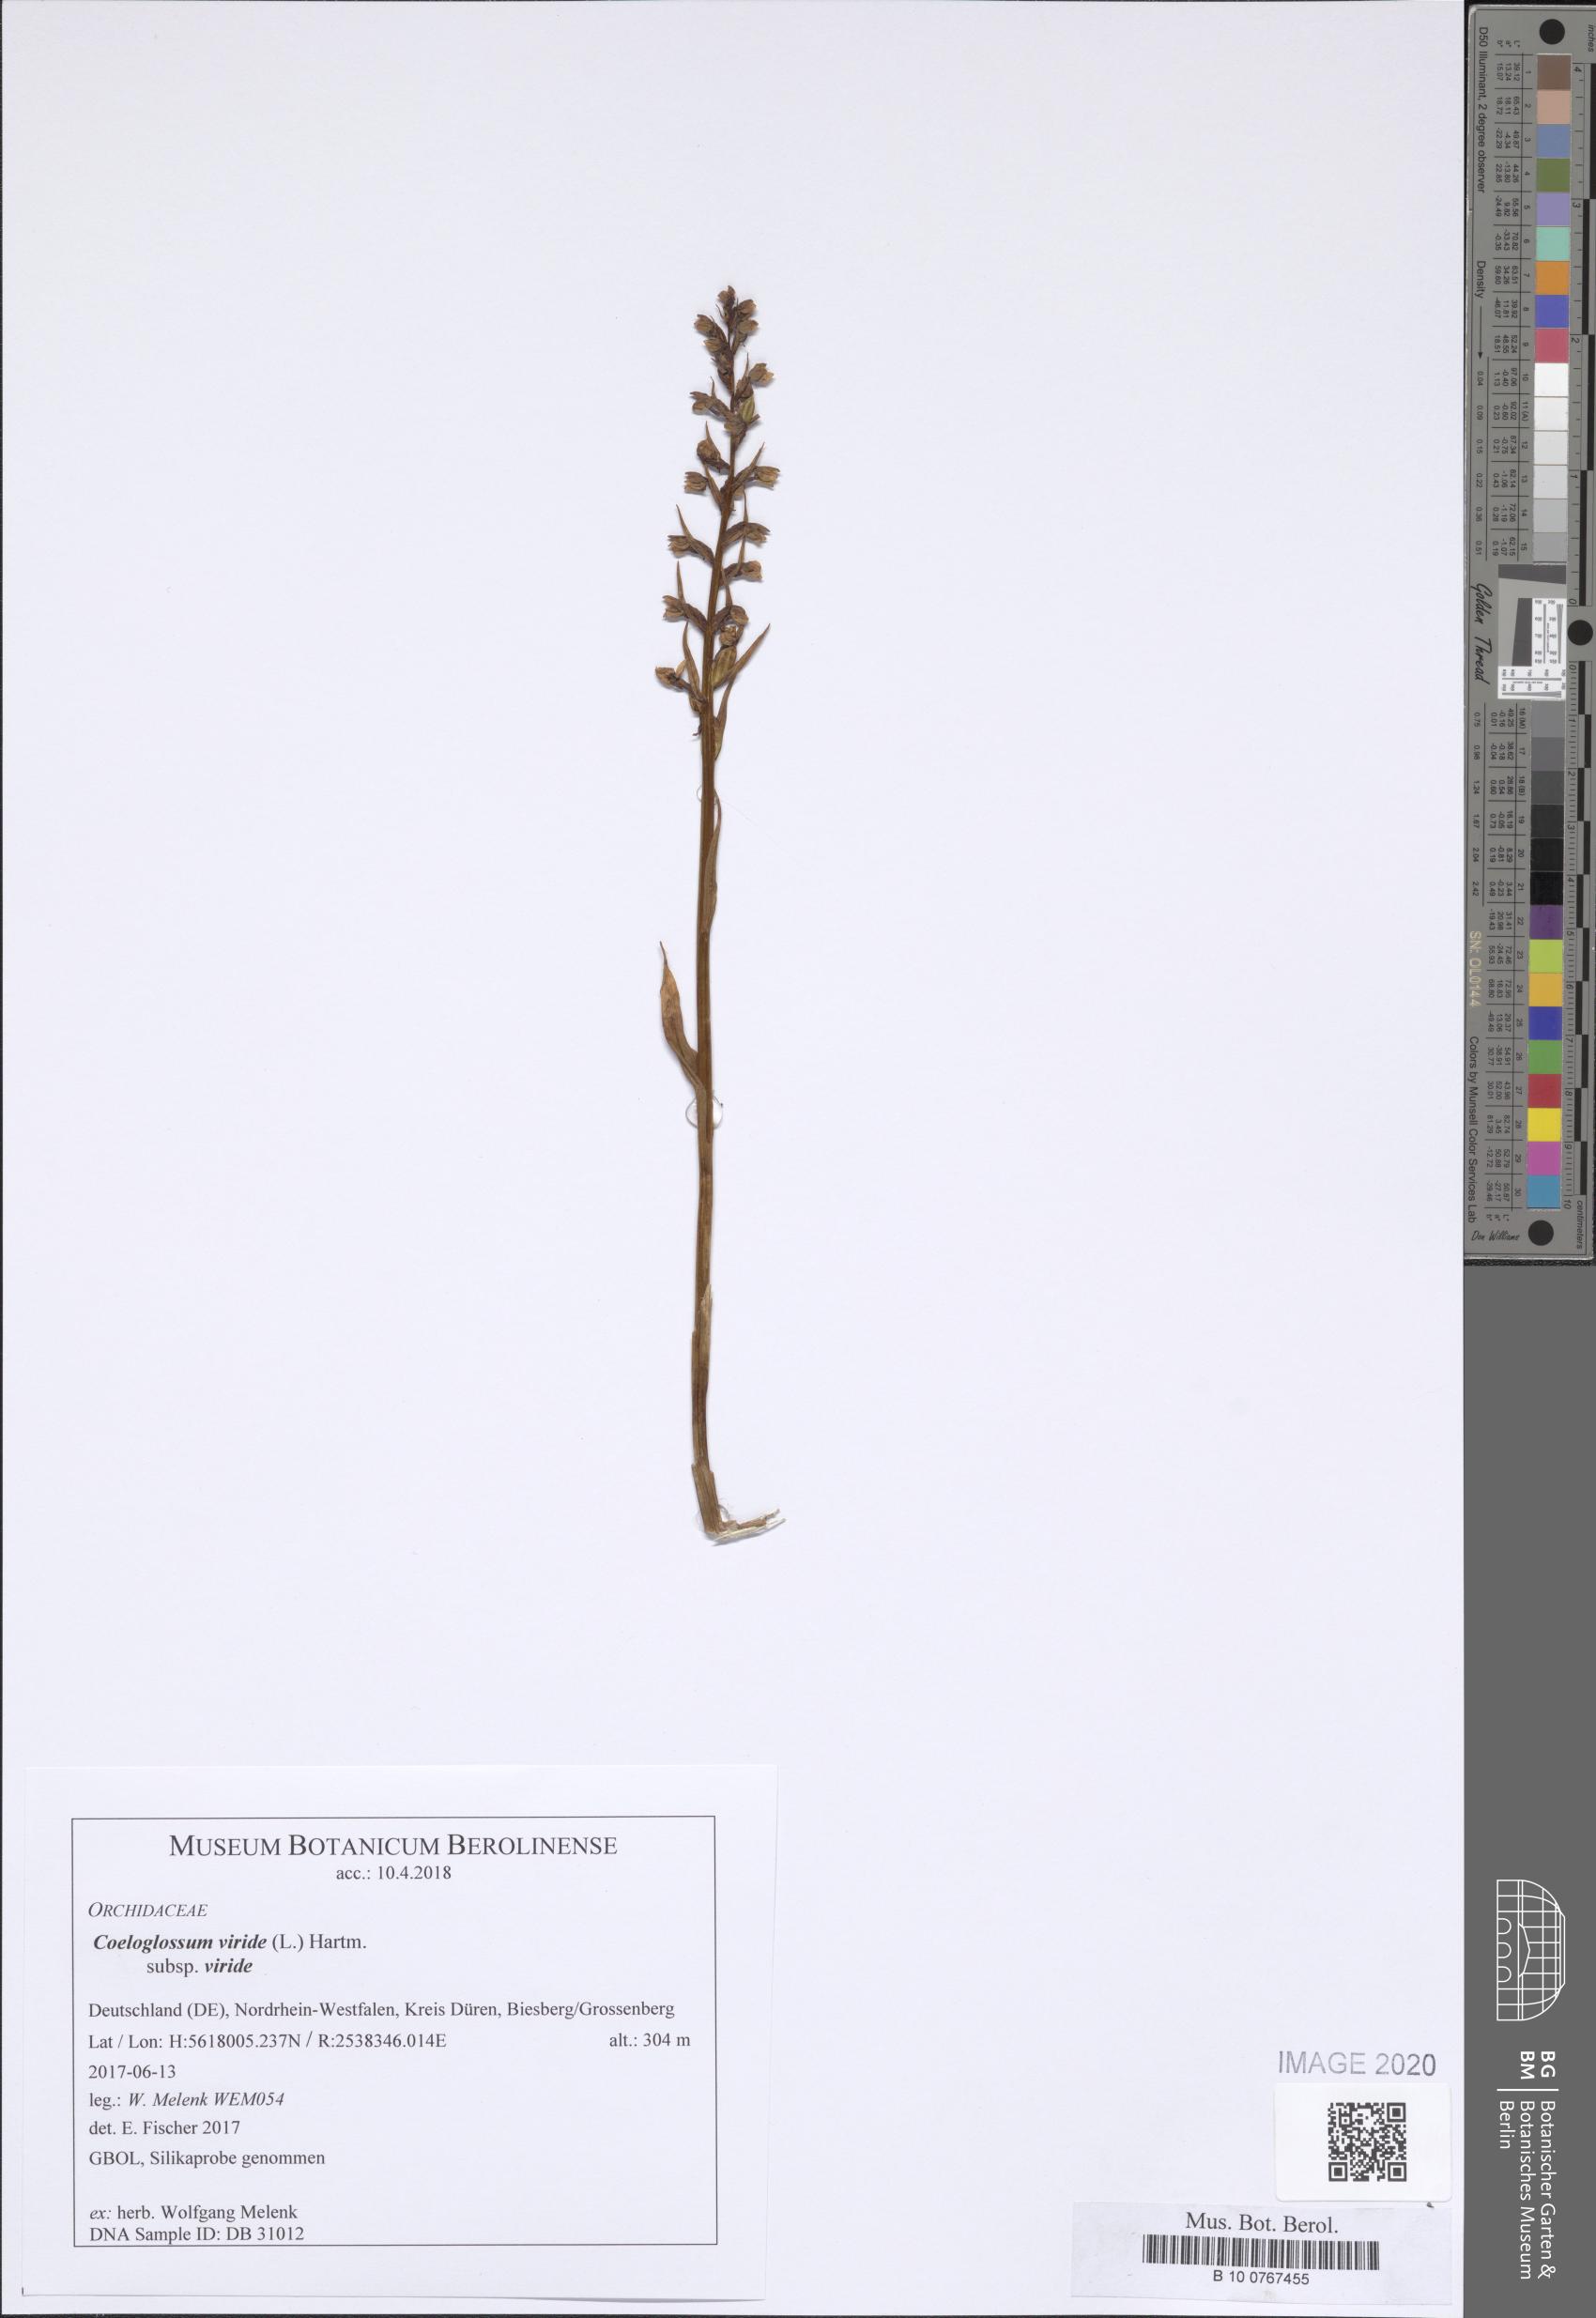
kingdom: Plantae
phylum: Tracheophyta
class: Liliopsida
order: Asparagales
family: Orchidaceae
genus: Dactylorhiza
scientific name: Dactylorhiza viridis
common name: Longbract frog orchid
